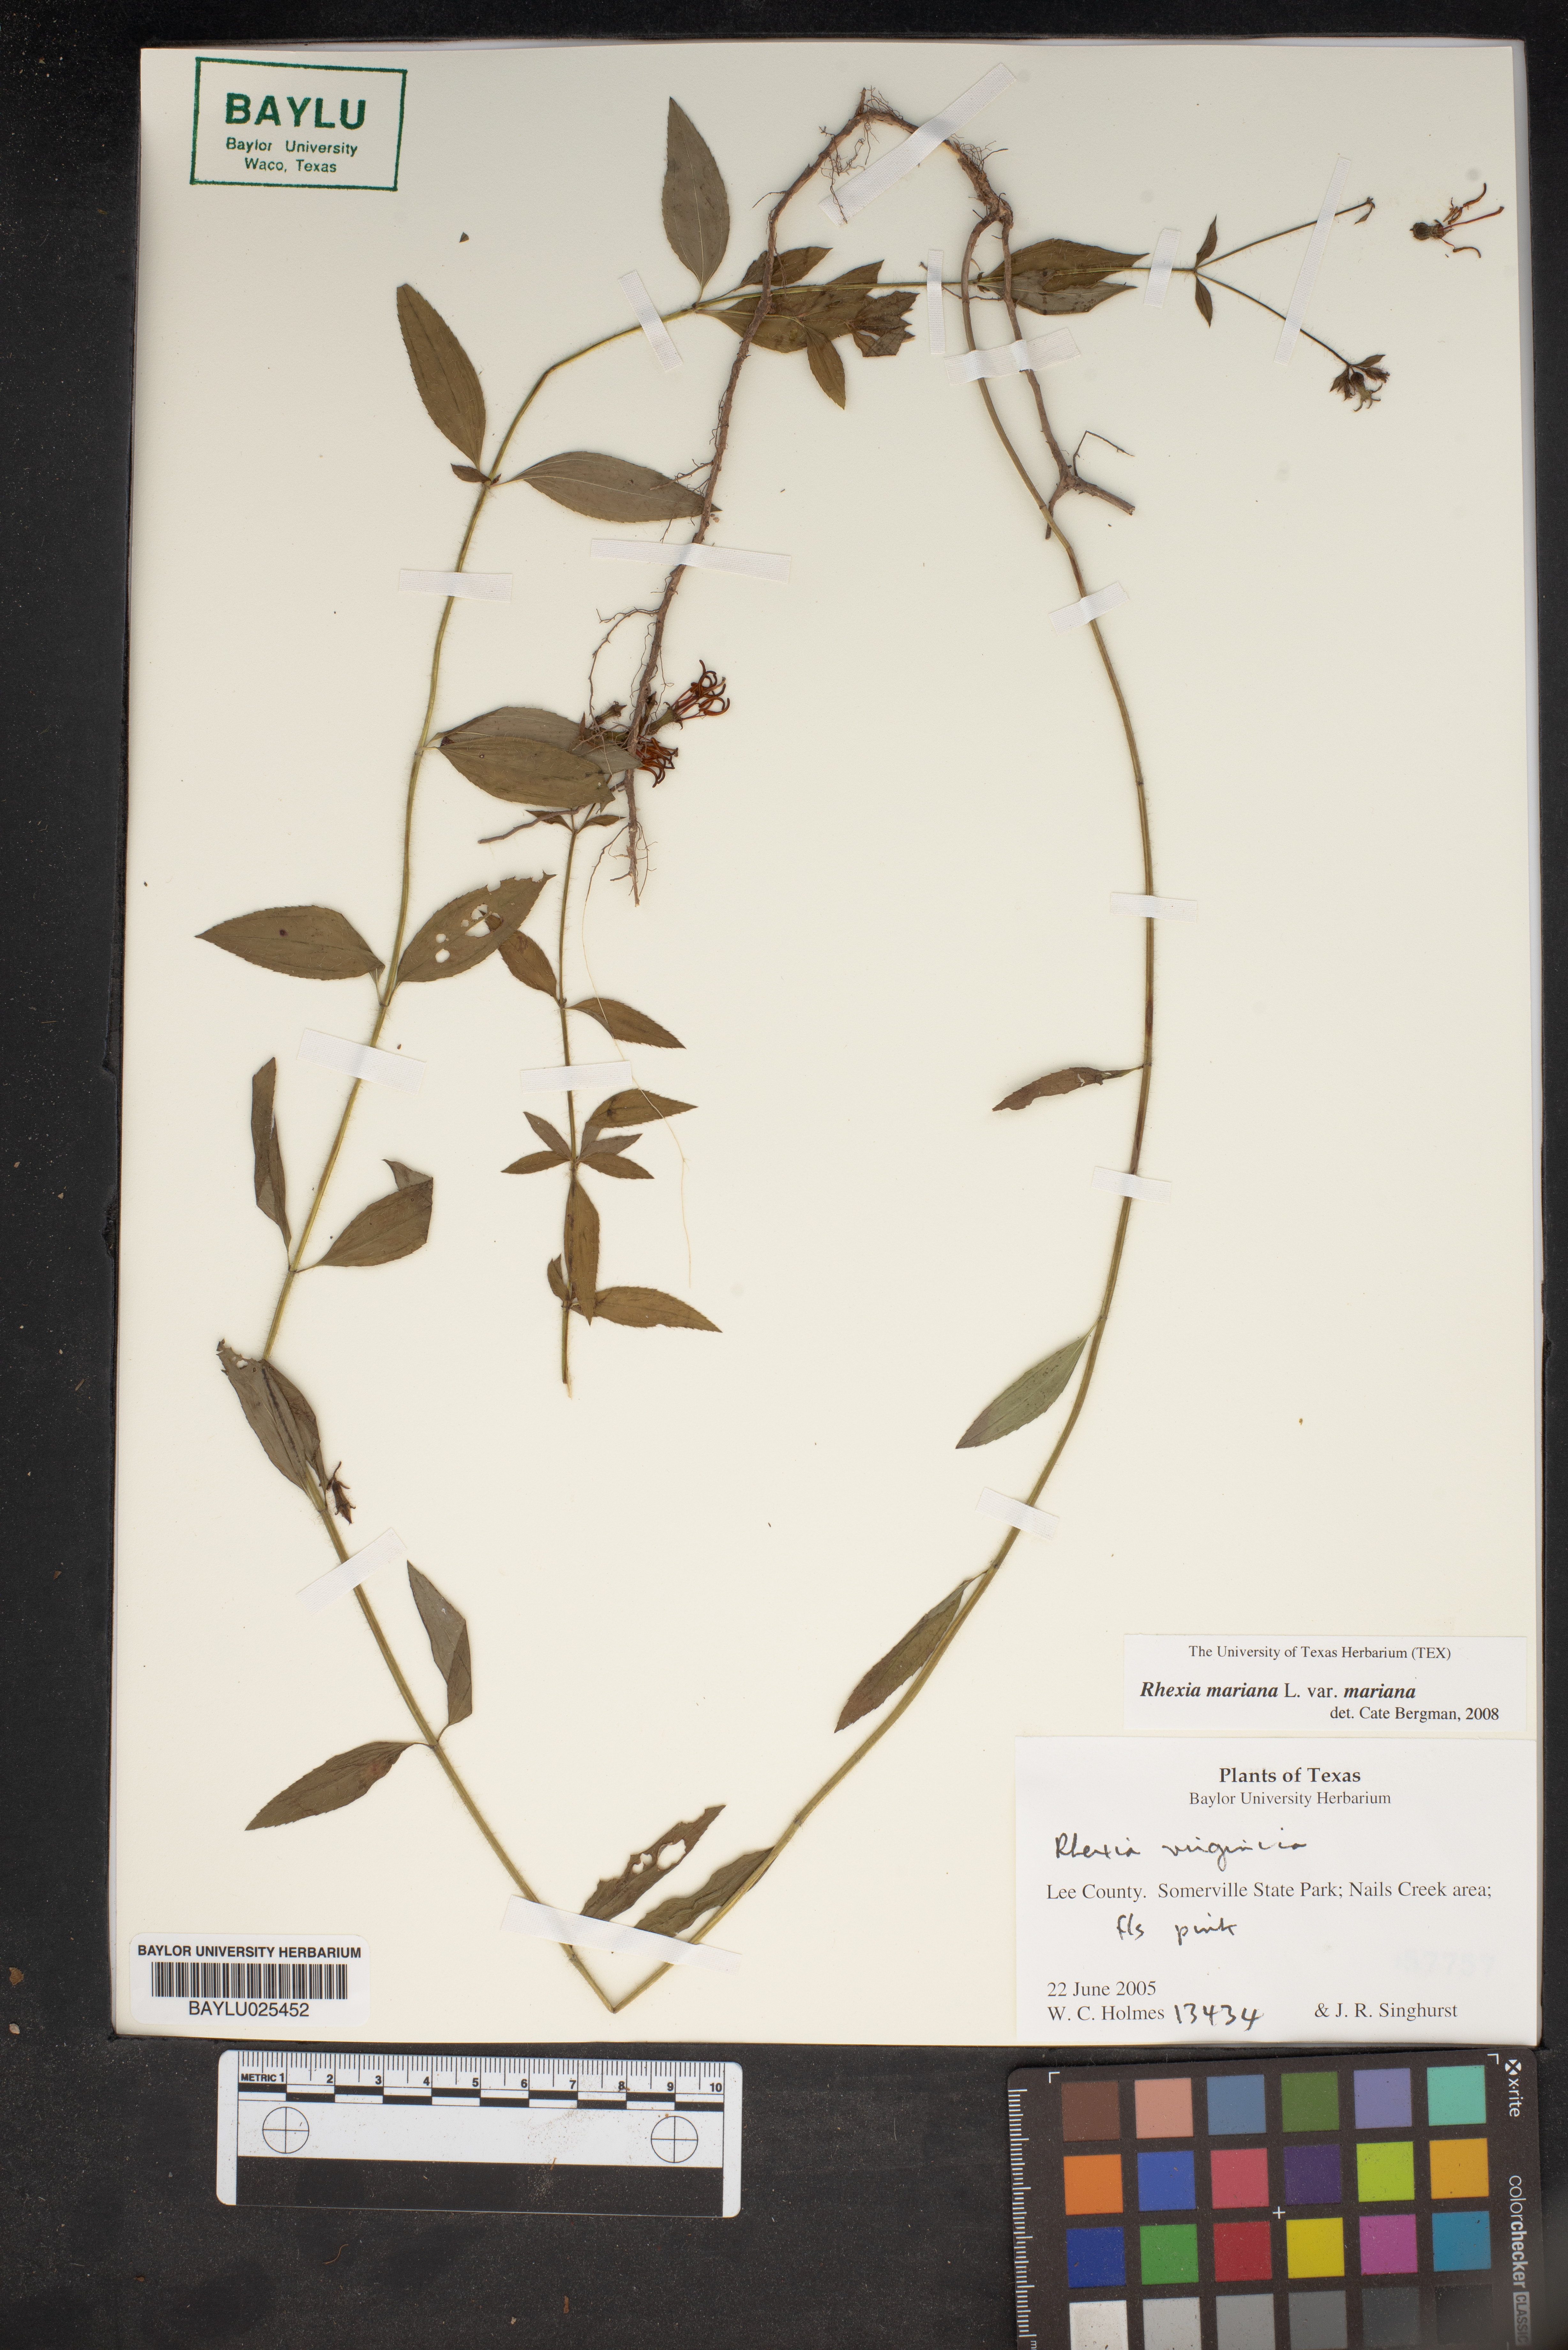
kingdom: Plantae
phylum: Tracheophyta
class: Magnoliopsida
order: Myrtales
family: Melastomataceae
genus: Rhexia
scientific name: Rhexia mariana
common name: Dull meadow-pitcher
